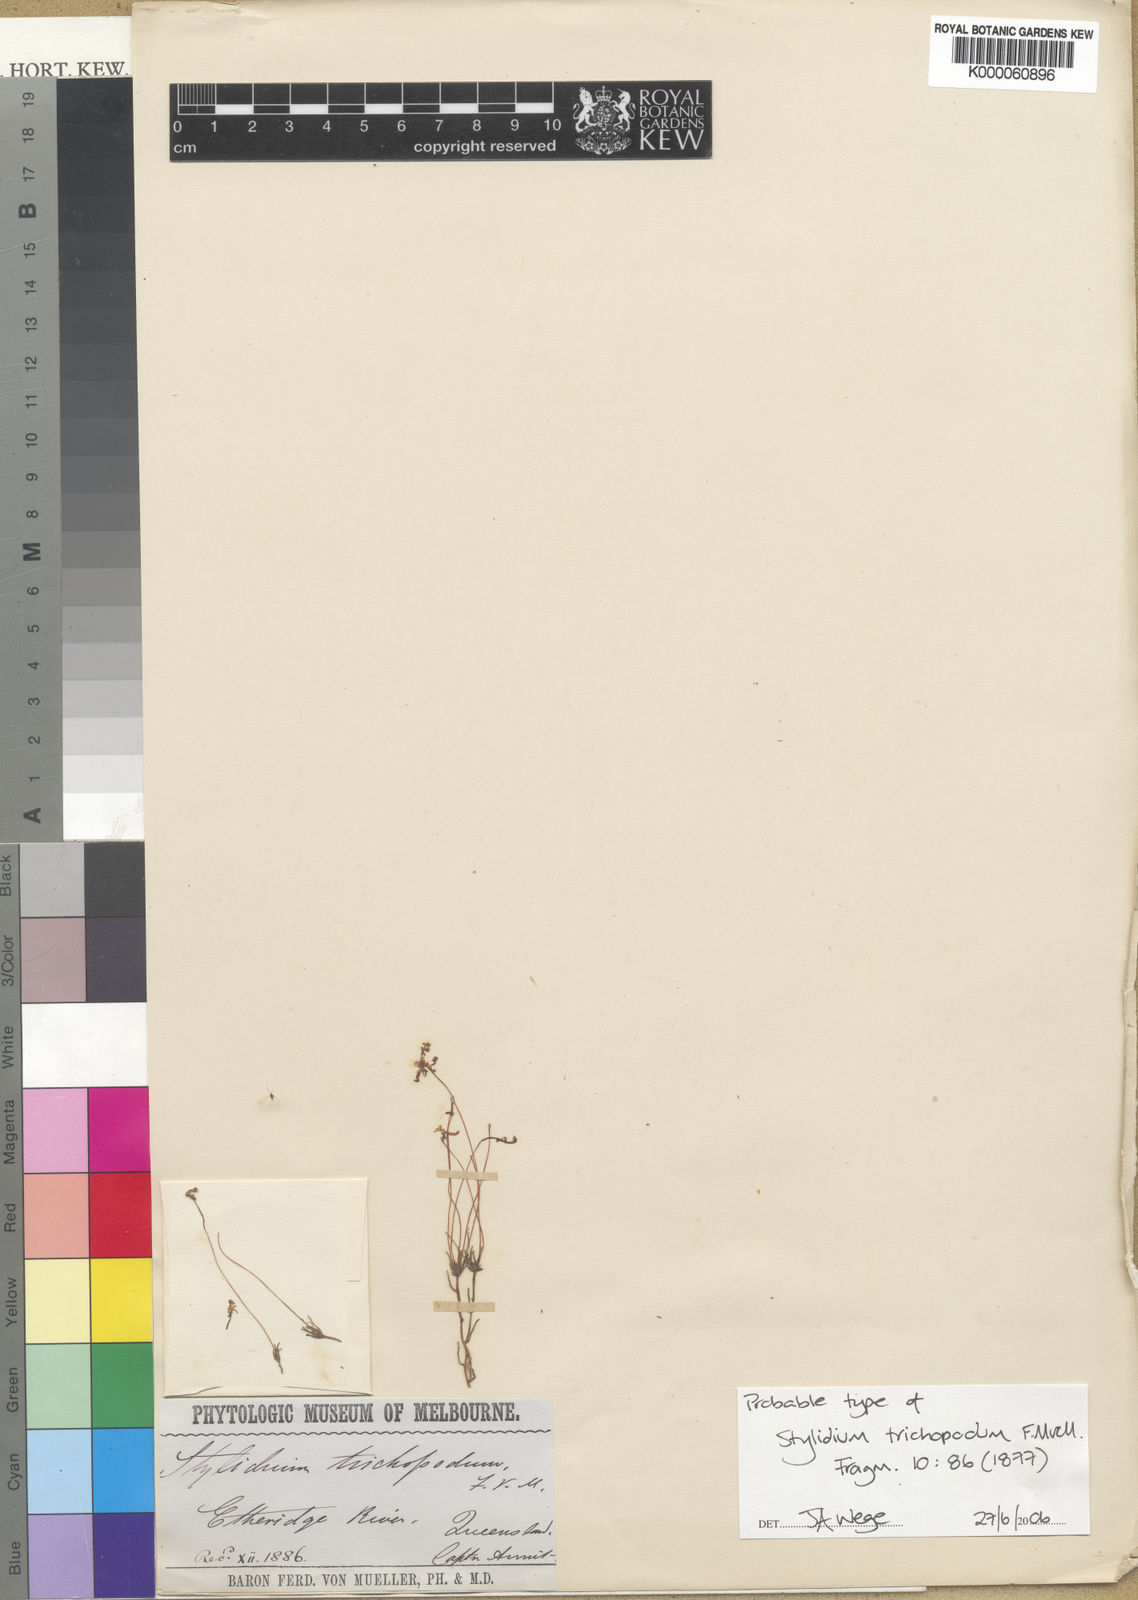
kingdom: Plantae
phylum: Tracheophyta
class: Magnoliopsida
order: Asterales
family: Stylidiaceae
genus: Stylidium
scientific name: Stylidium trichopodum
